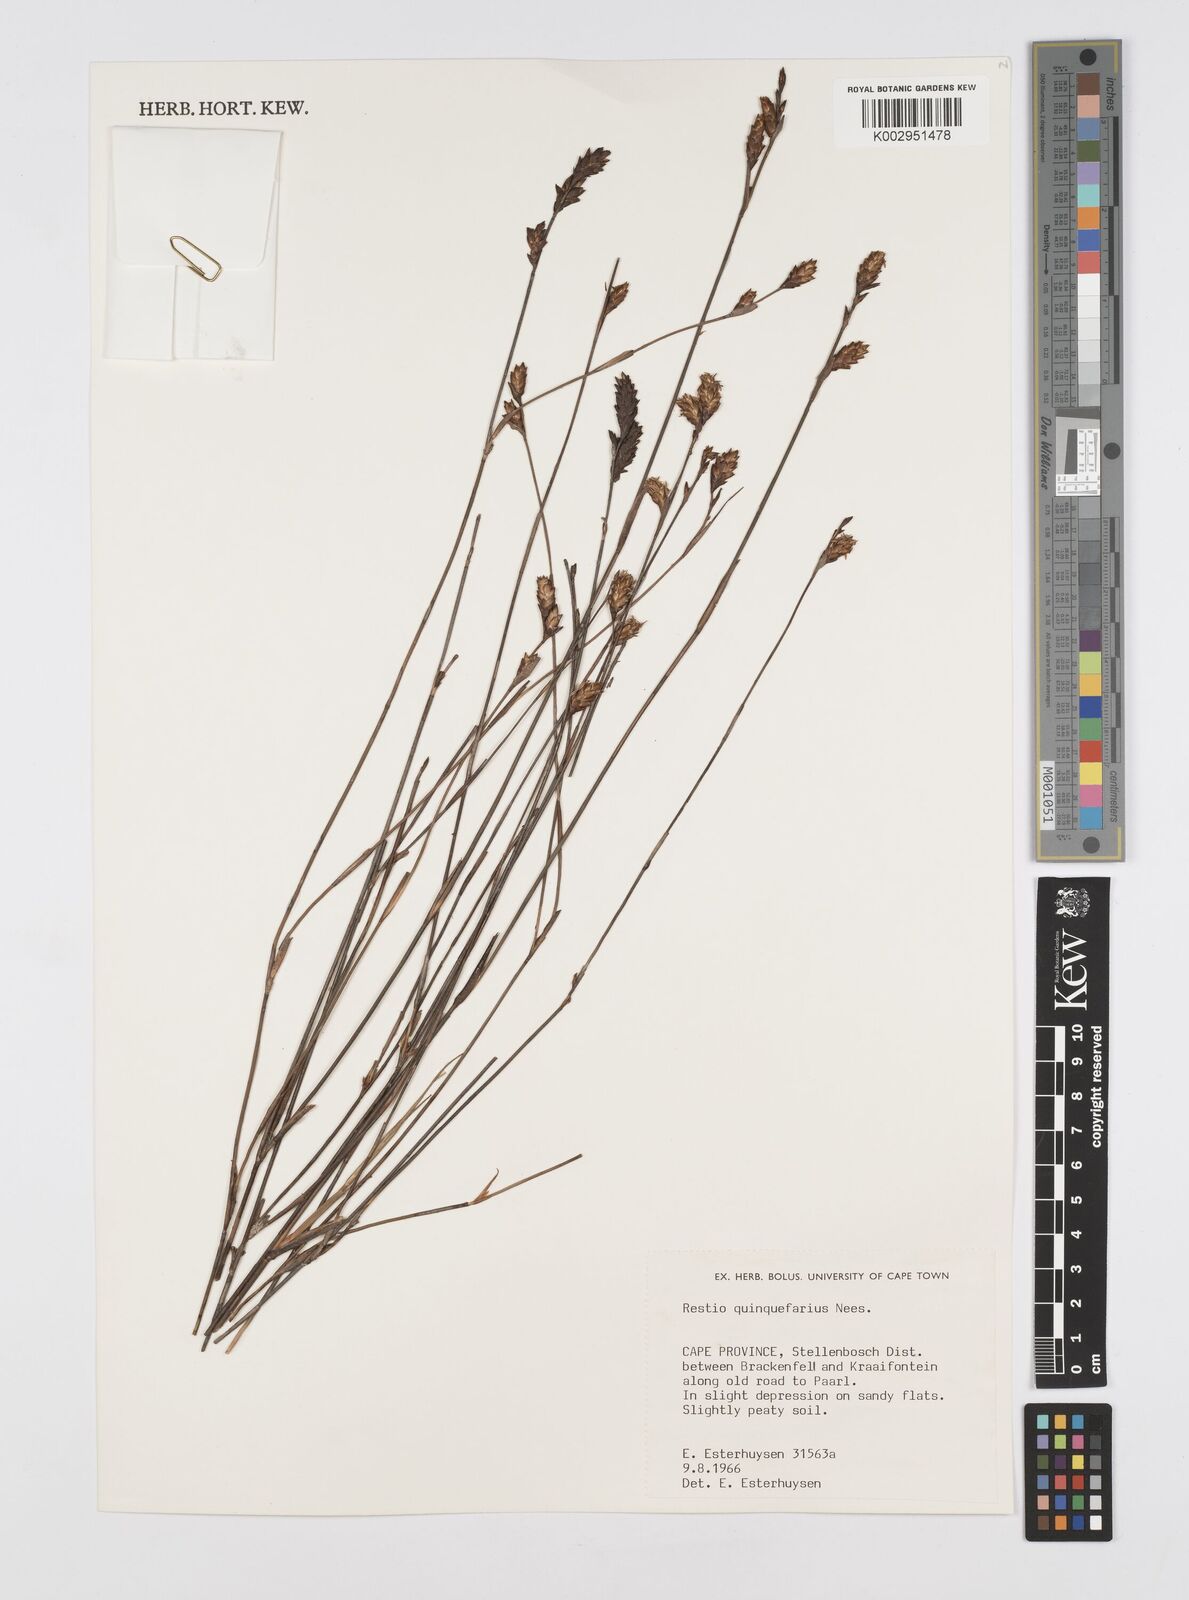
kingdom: Plantae
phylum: Tracheophyta
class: Liliopsida
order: Poales
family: Restionaceae
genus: Restio
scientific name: Restio quinquefarius
